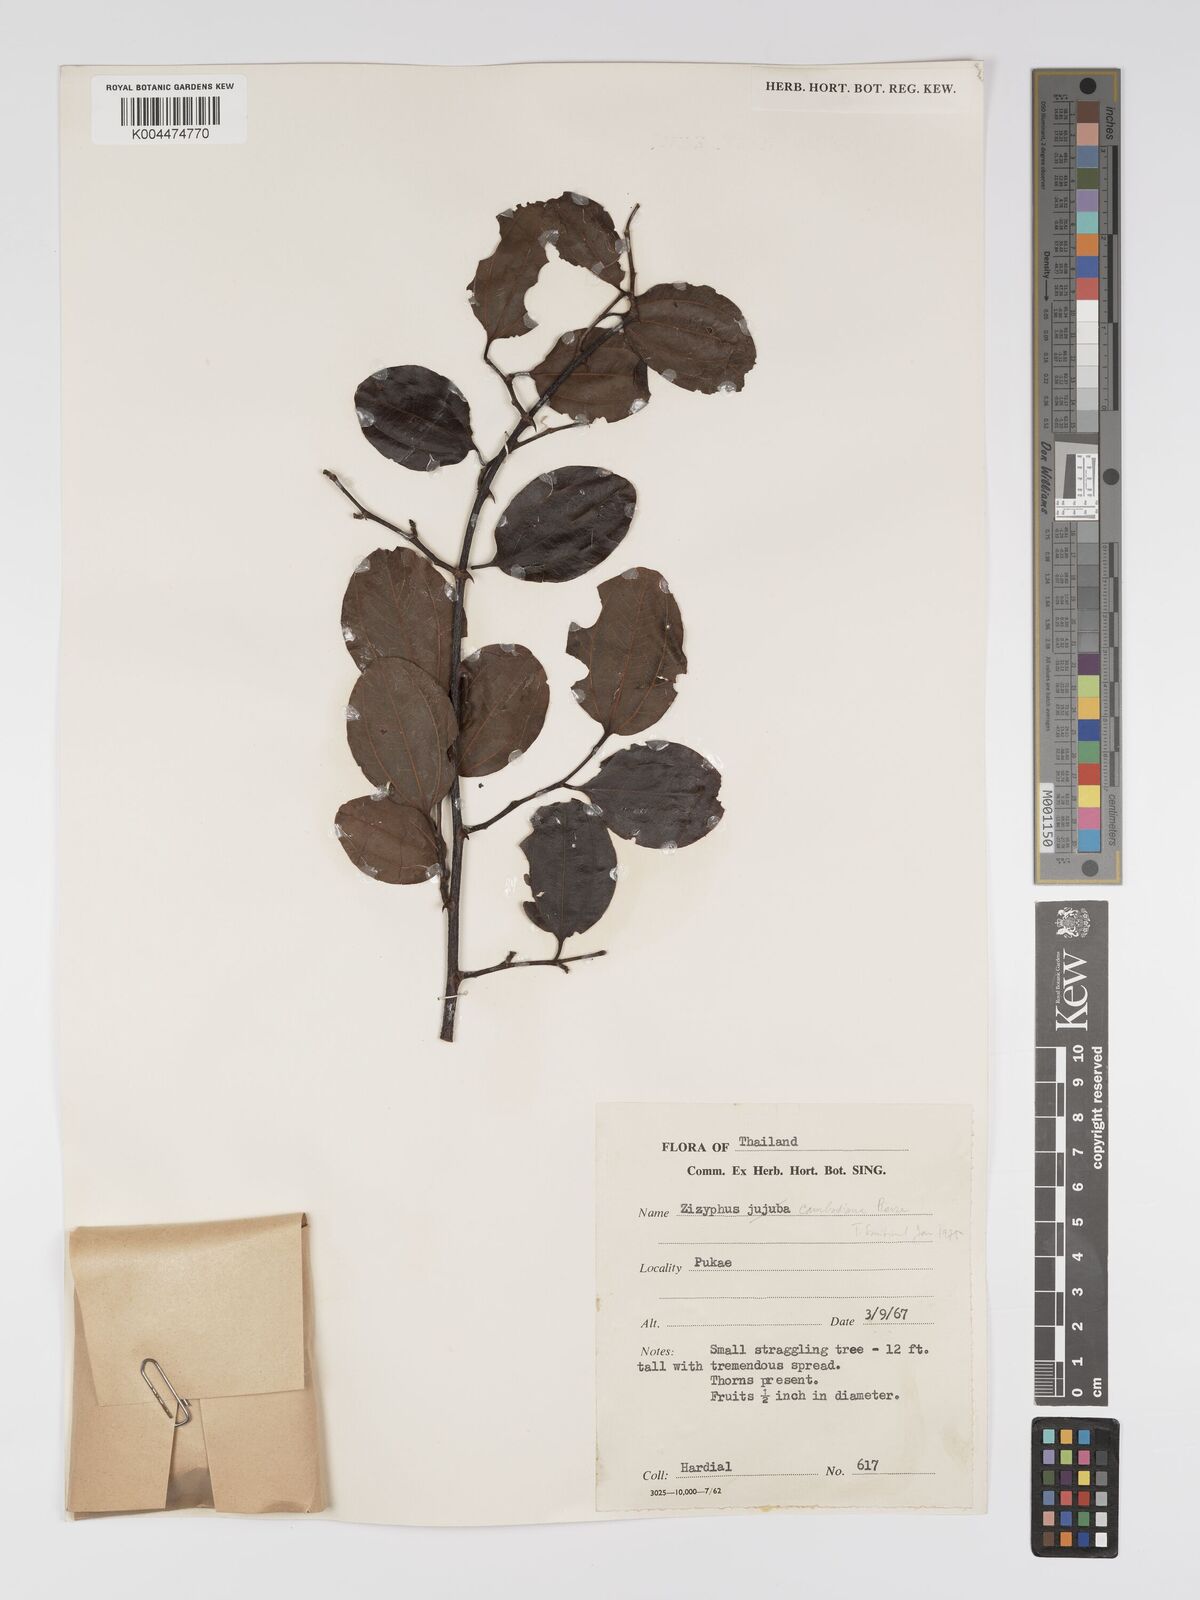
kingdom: Plantae
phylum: Tracheophyta
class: Magnoliopsida
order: Rosales
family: Rhamnaceae
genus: Ziziphus
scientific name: Ziziphus cambodiana
